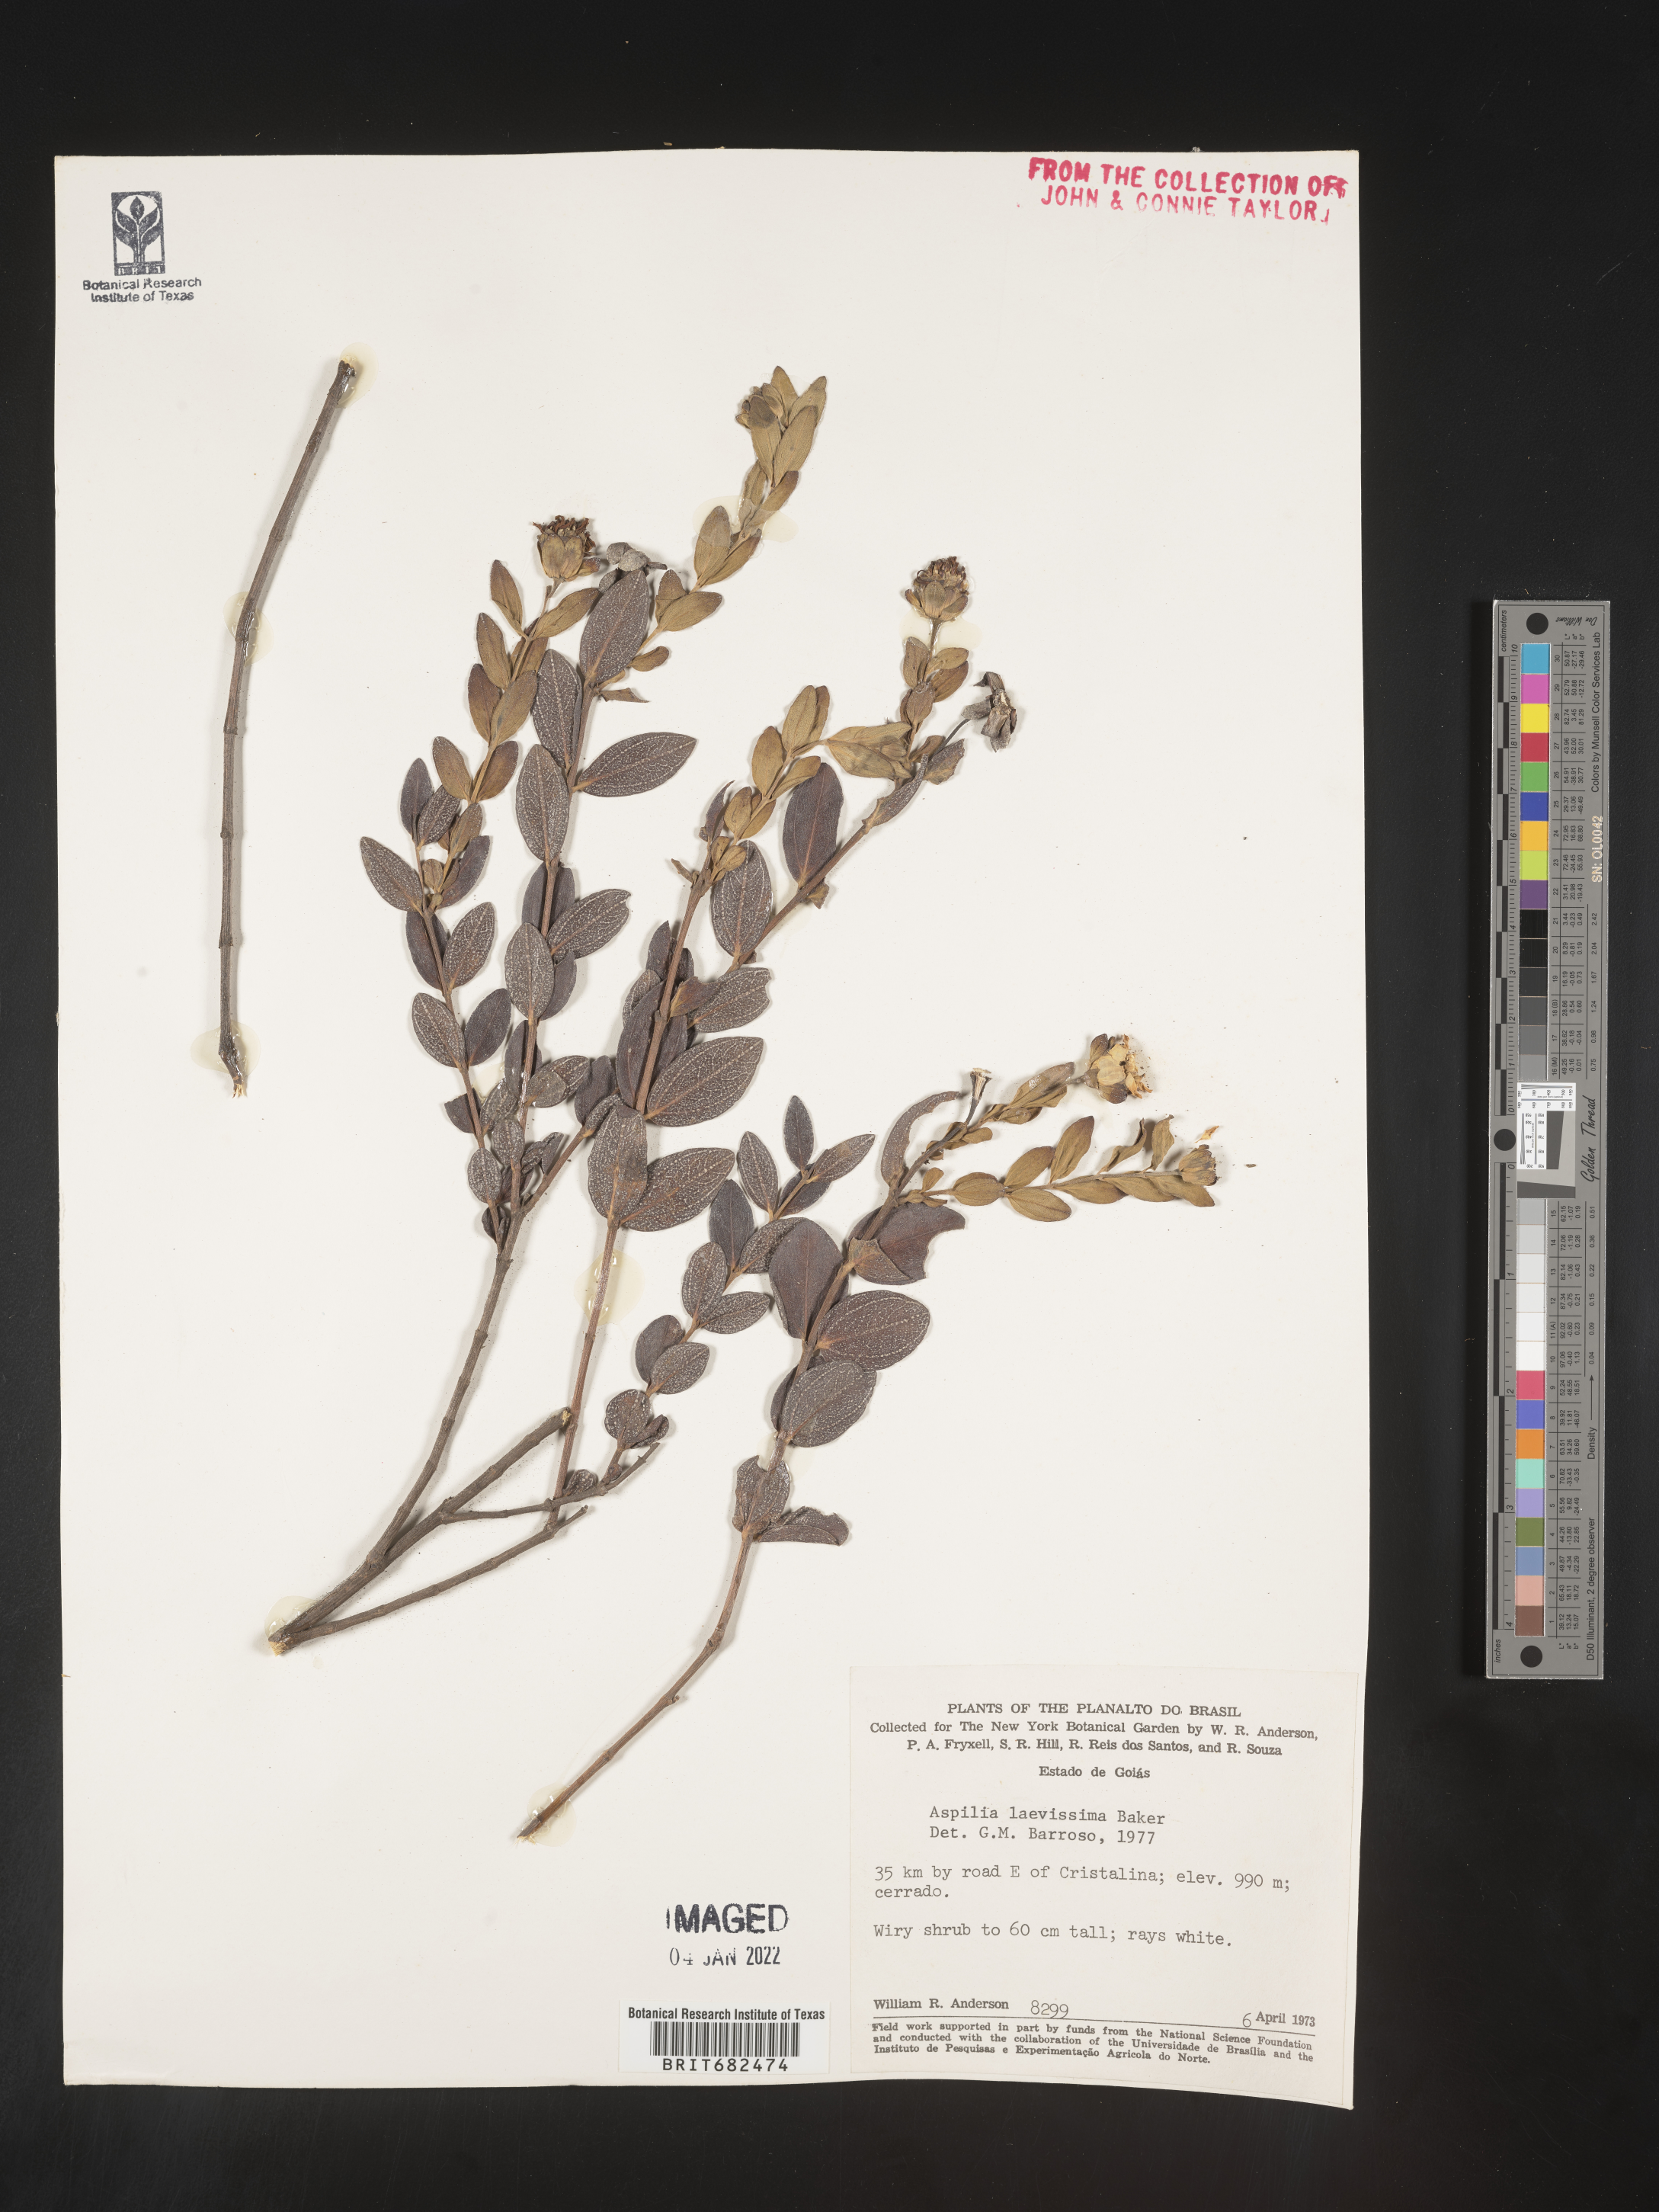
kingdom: Plantae
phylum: Tracheophyta
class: Magnoliopsida
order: Asterales
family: Asteraceae
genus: Aspilia
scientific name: Aspilia
